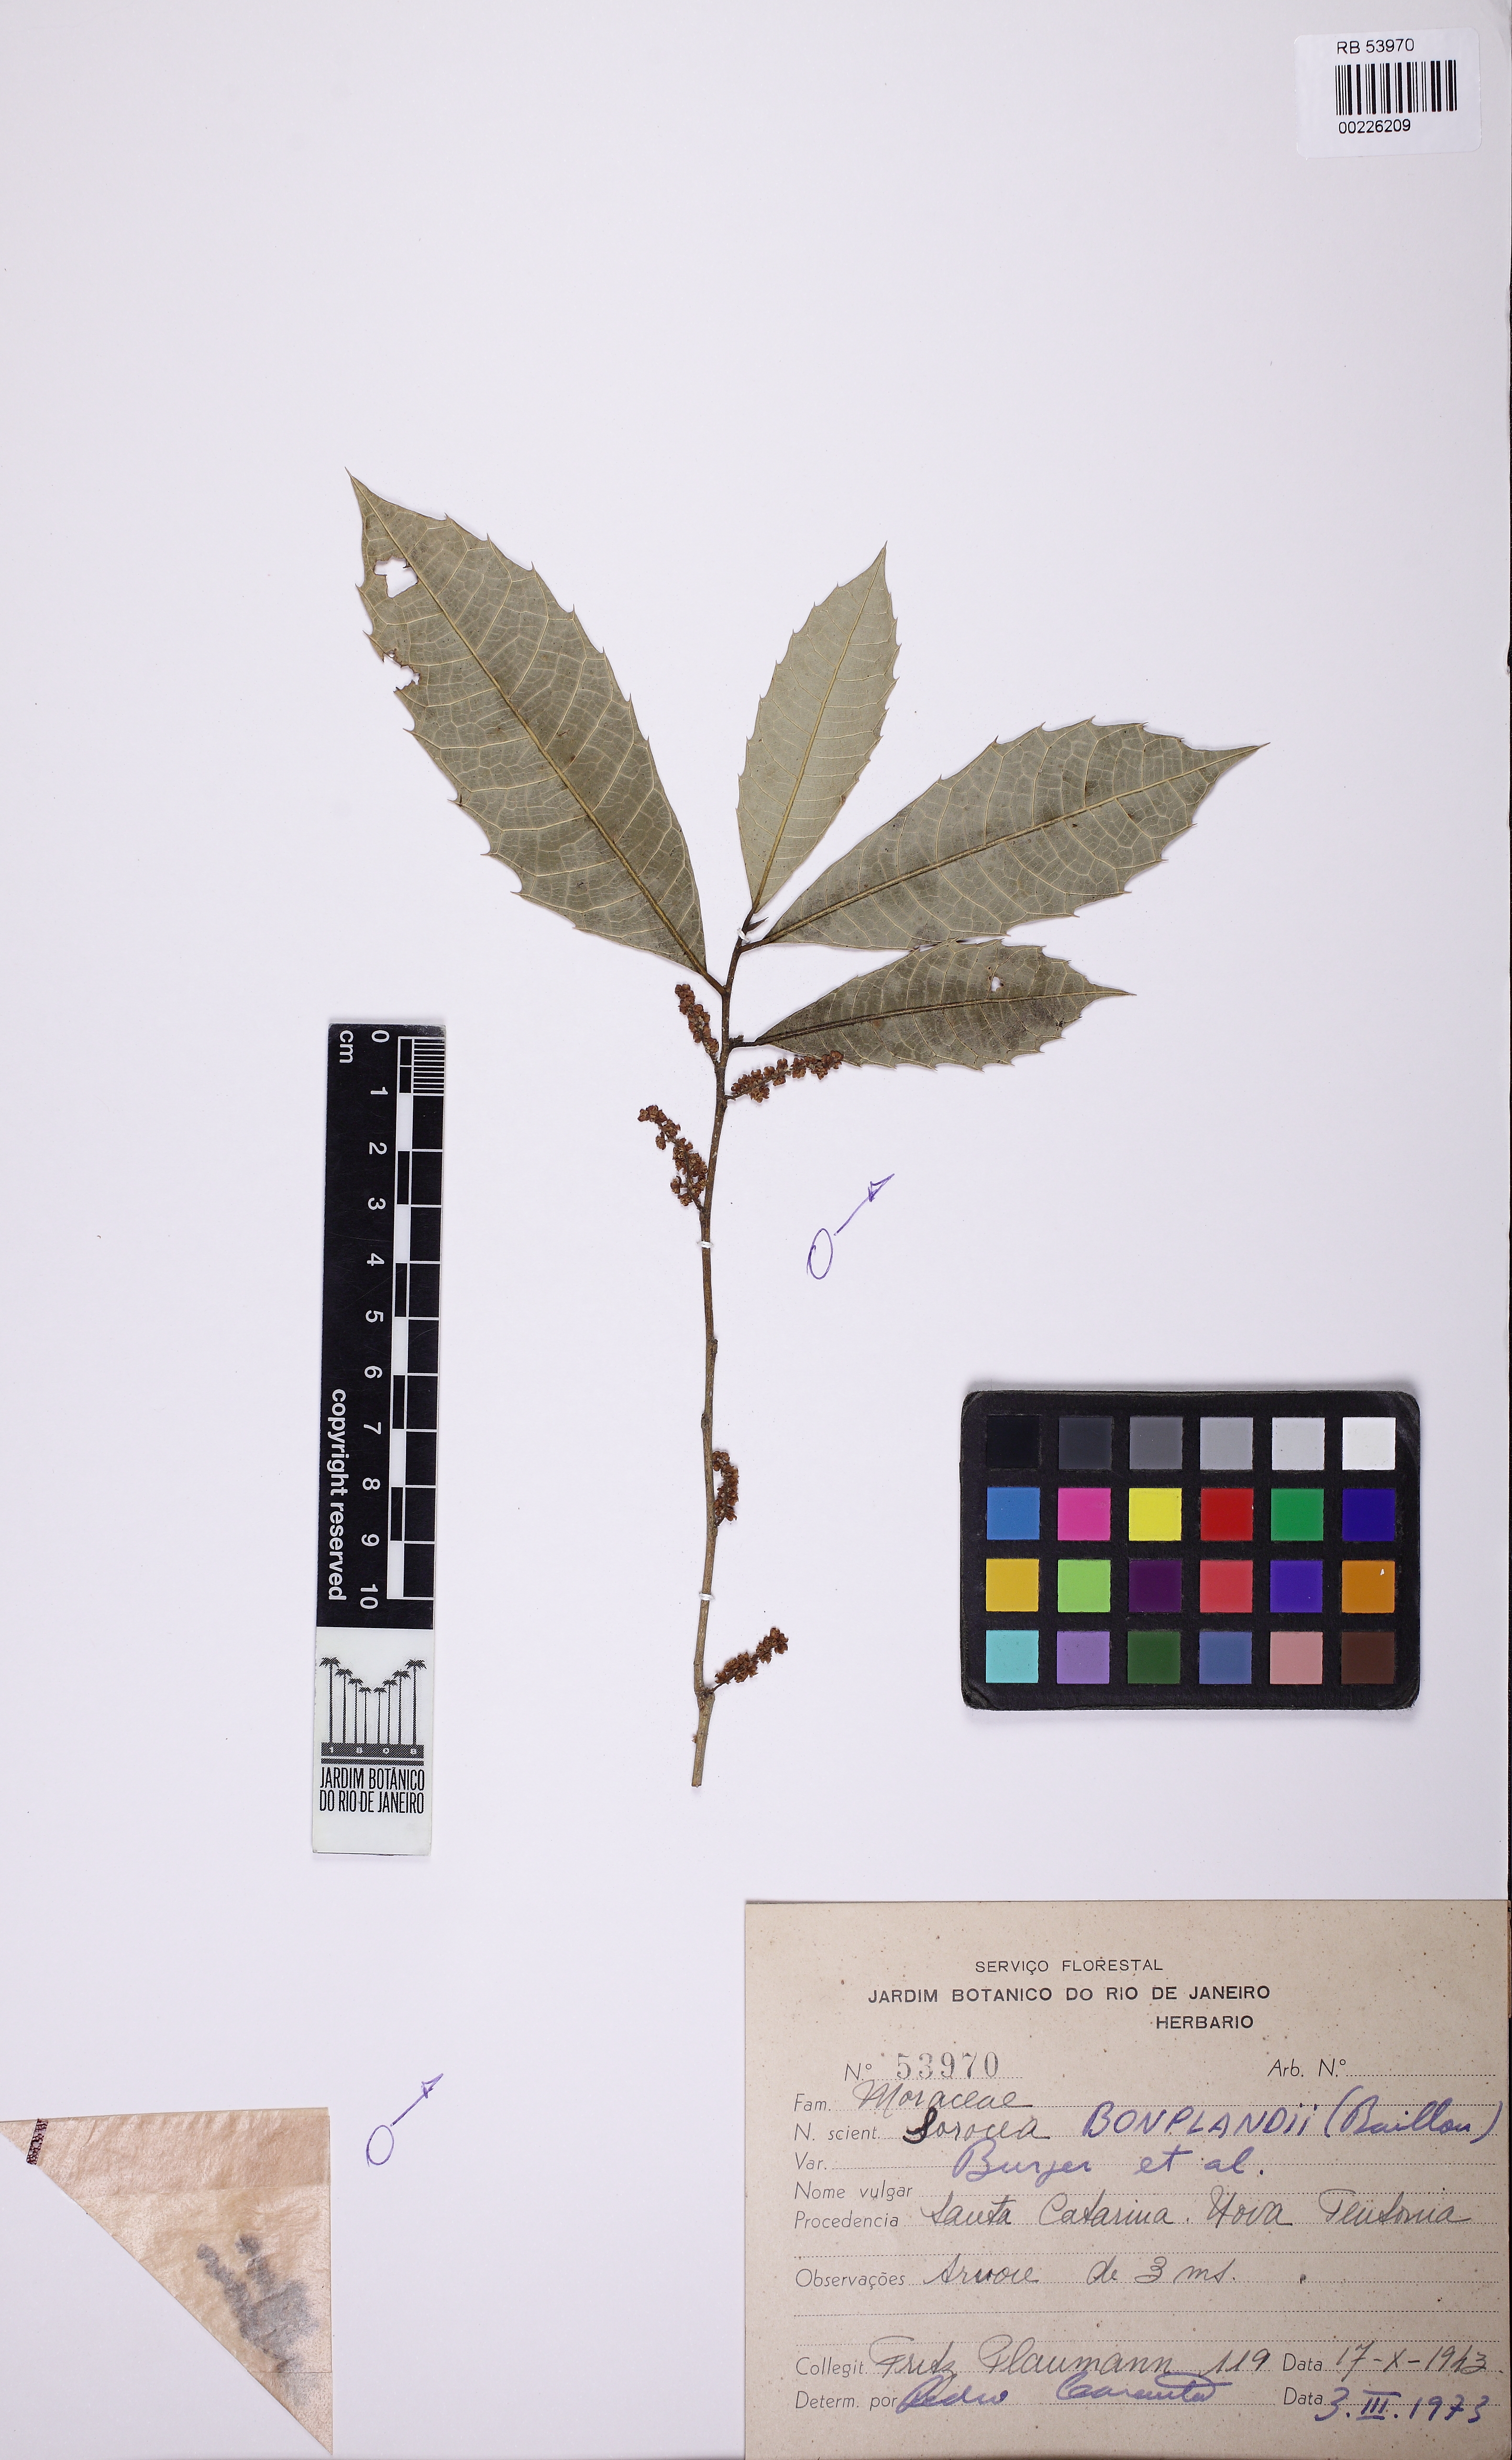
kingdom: Plantae
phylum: Tracheophyta
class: Magnoliopsida
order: Rosales
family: Moraceae
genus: Sorocea
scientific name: Sorocea bonplandii
